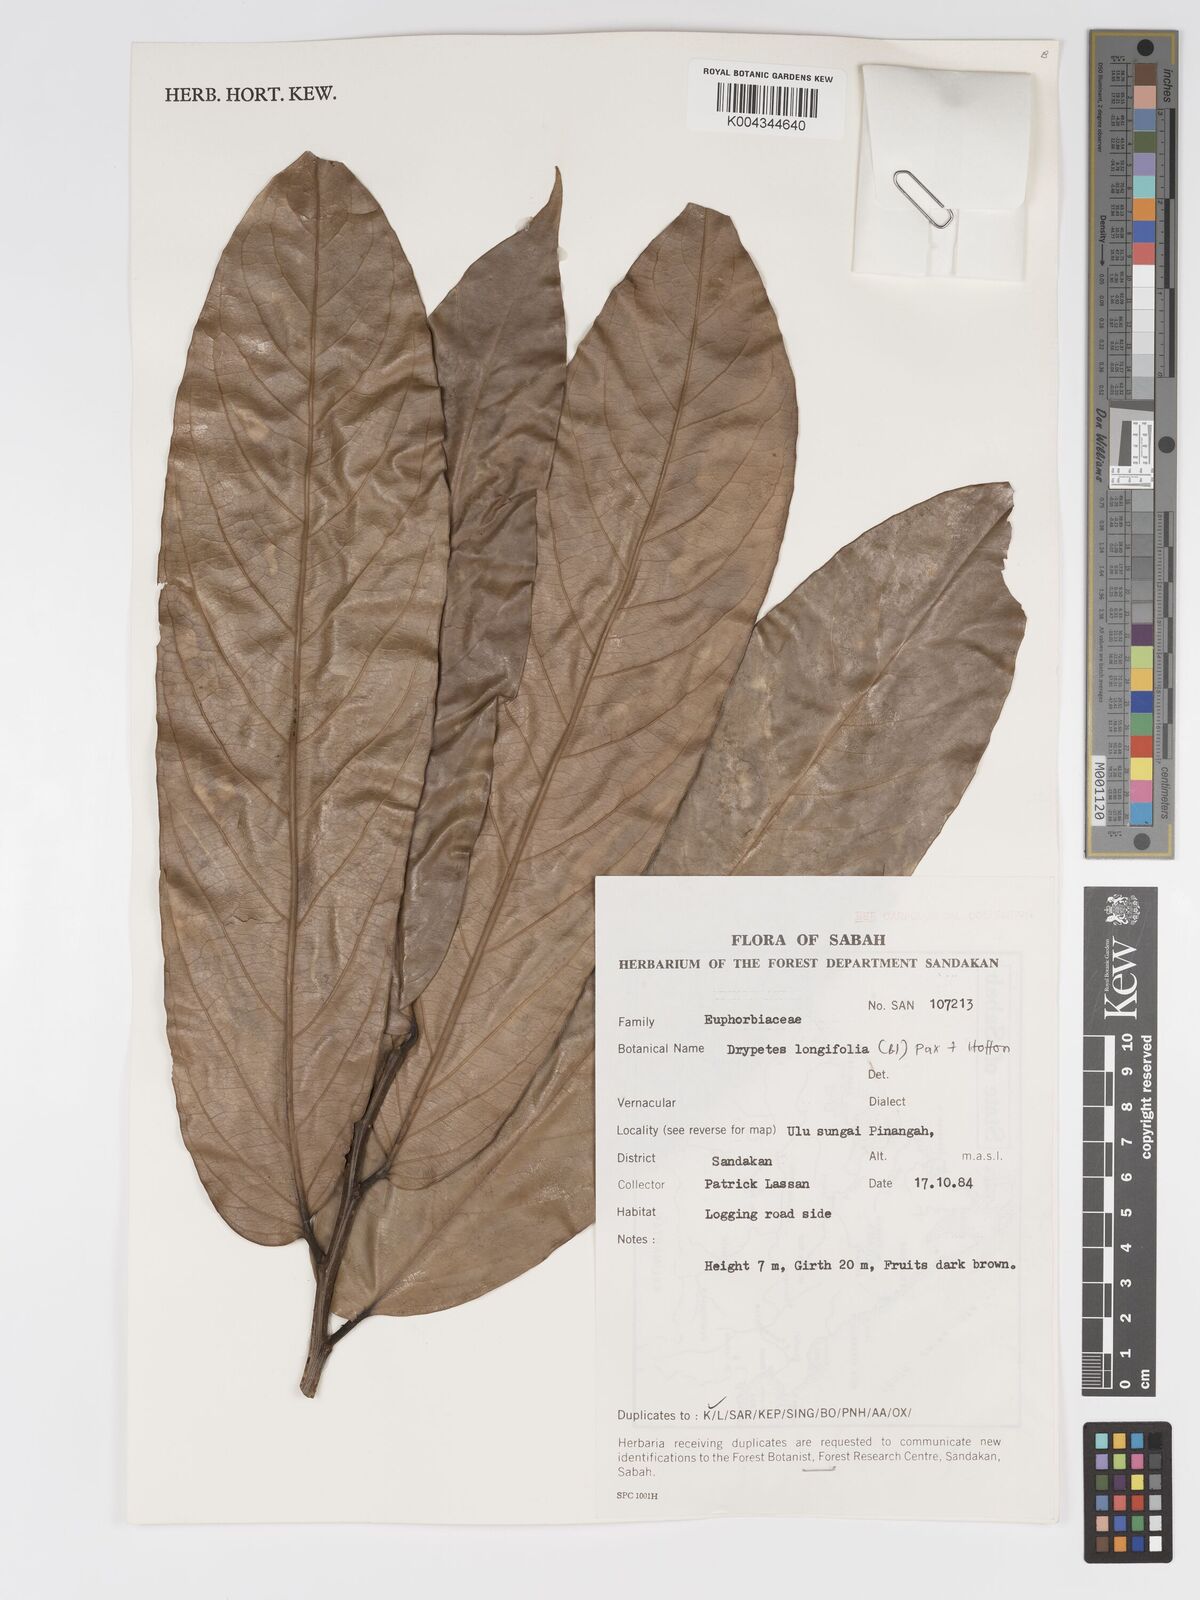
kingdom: Plantae
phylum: Tracheophyta
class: Magnoliopsida
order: Malpighiales
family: Putranjivaceae
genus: Drypetes
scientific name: Drypetes longifolia
